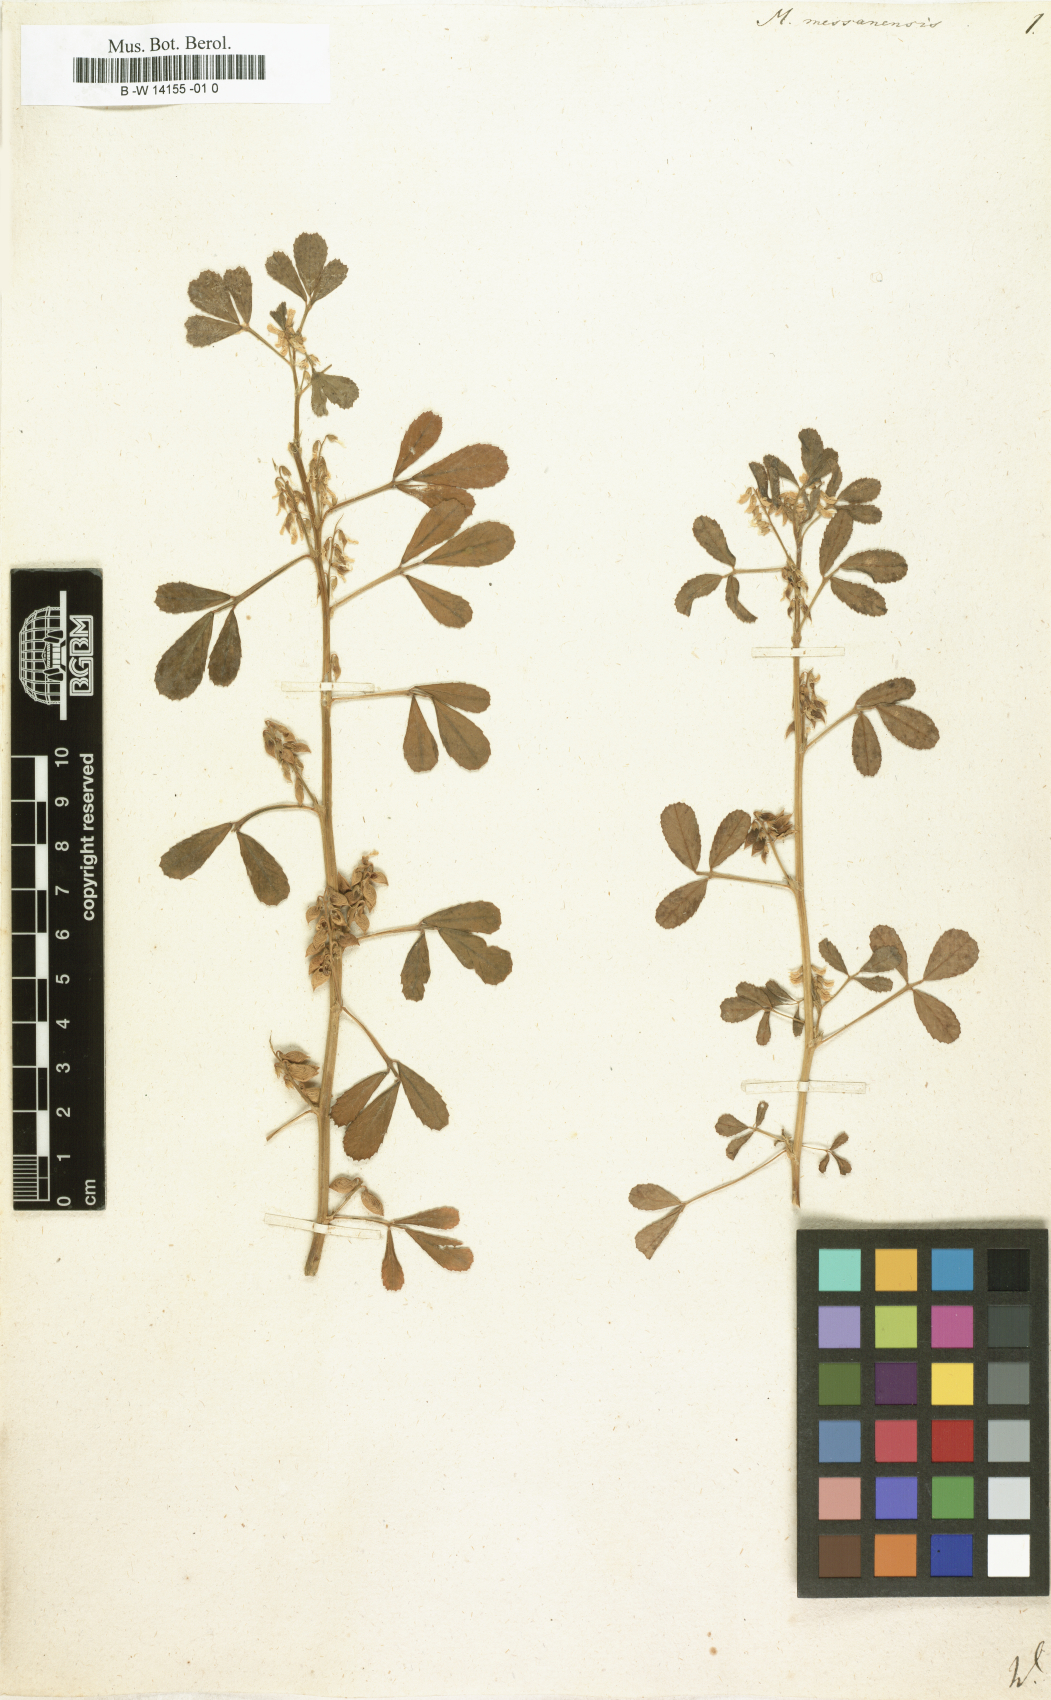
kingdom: Plantae
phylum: Tracheophyta
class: Magnoliopsida
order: Fabales
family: Fabaceae
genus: Melilotus
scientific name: Melilotus siculus
